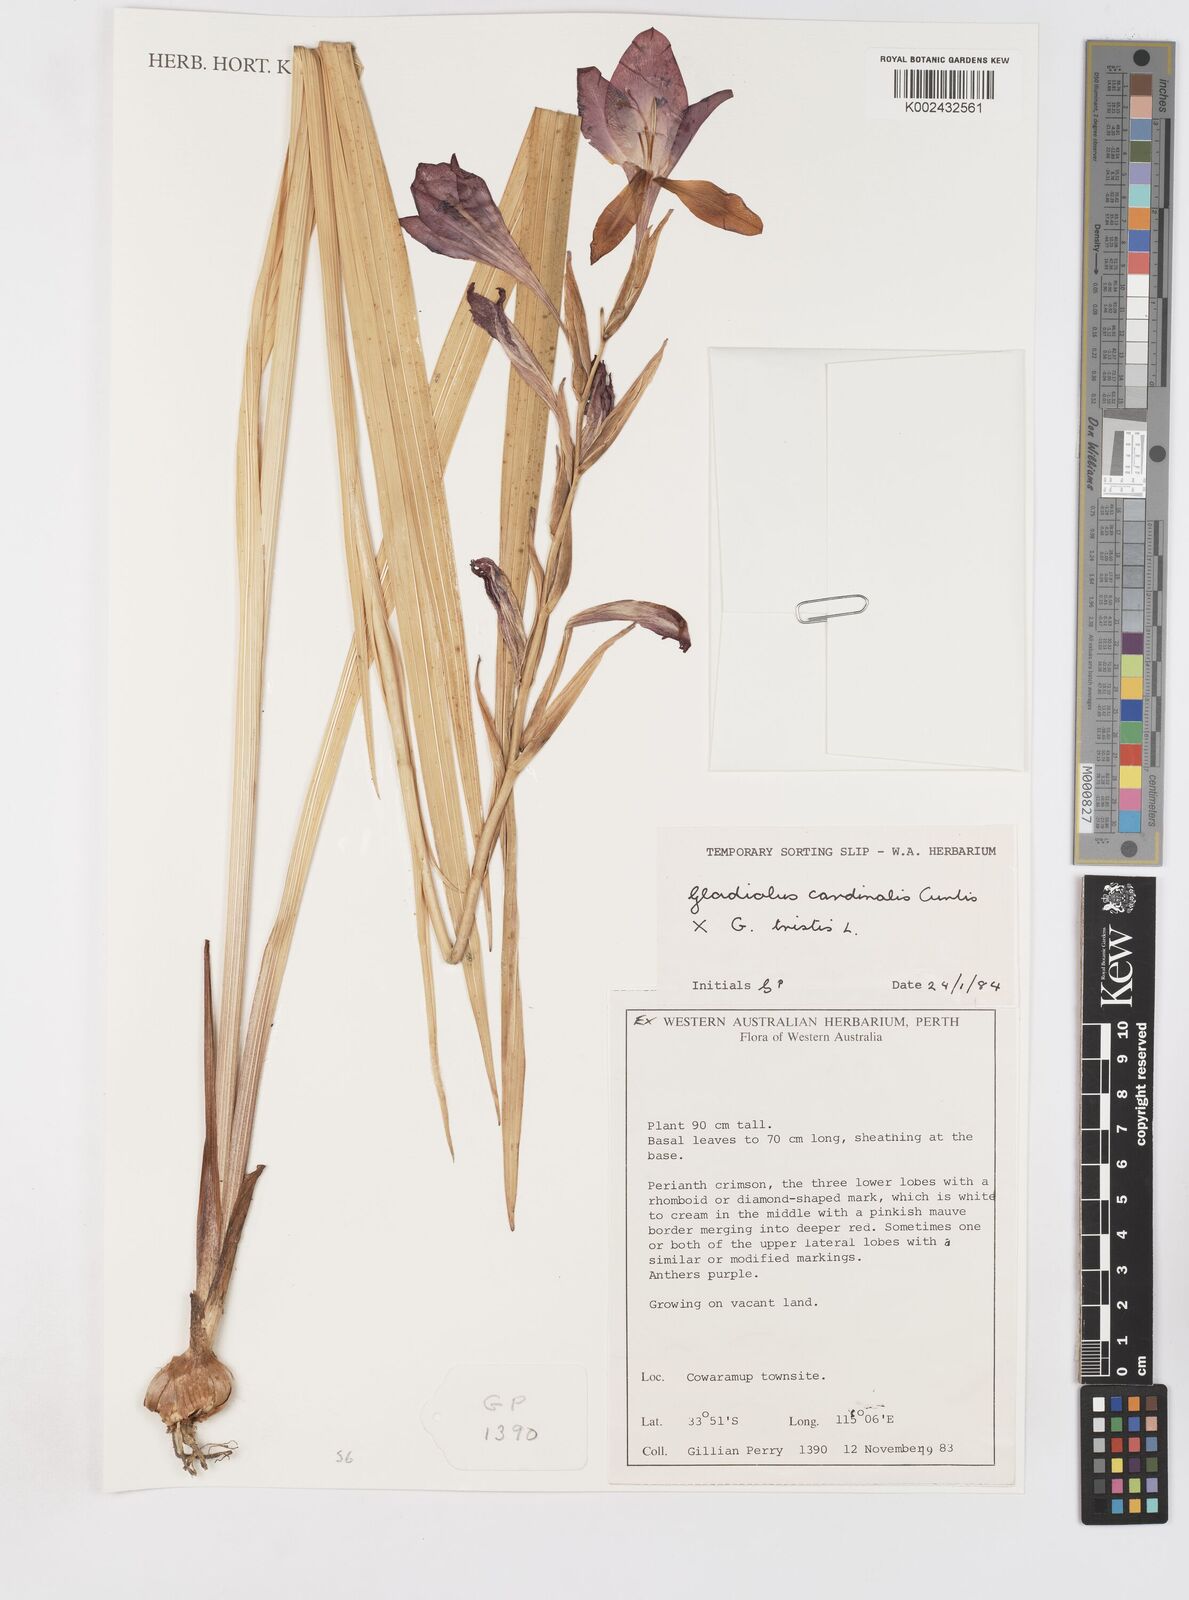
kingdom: Plantae
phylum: Tracheophyta
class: Liliopsida
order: Asparagales
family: Iridaceae
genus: Gladiolus
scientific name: Gladiolus cardinalis
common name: New year-lily
